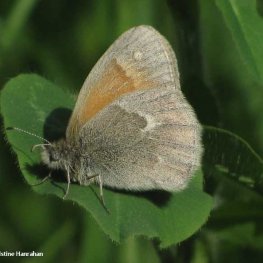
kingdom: Animalia
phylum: Arthropoda
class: Insecta
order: Lepidoptera
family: Nymphalidae
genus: Coenonympha
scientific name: Coenonympha tullia
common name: Large Heath
